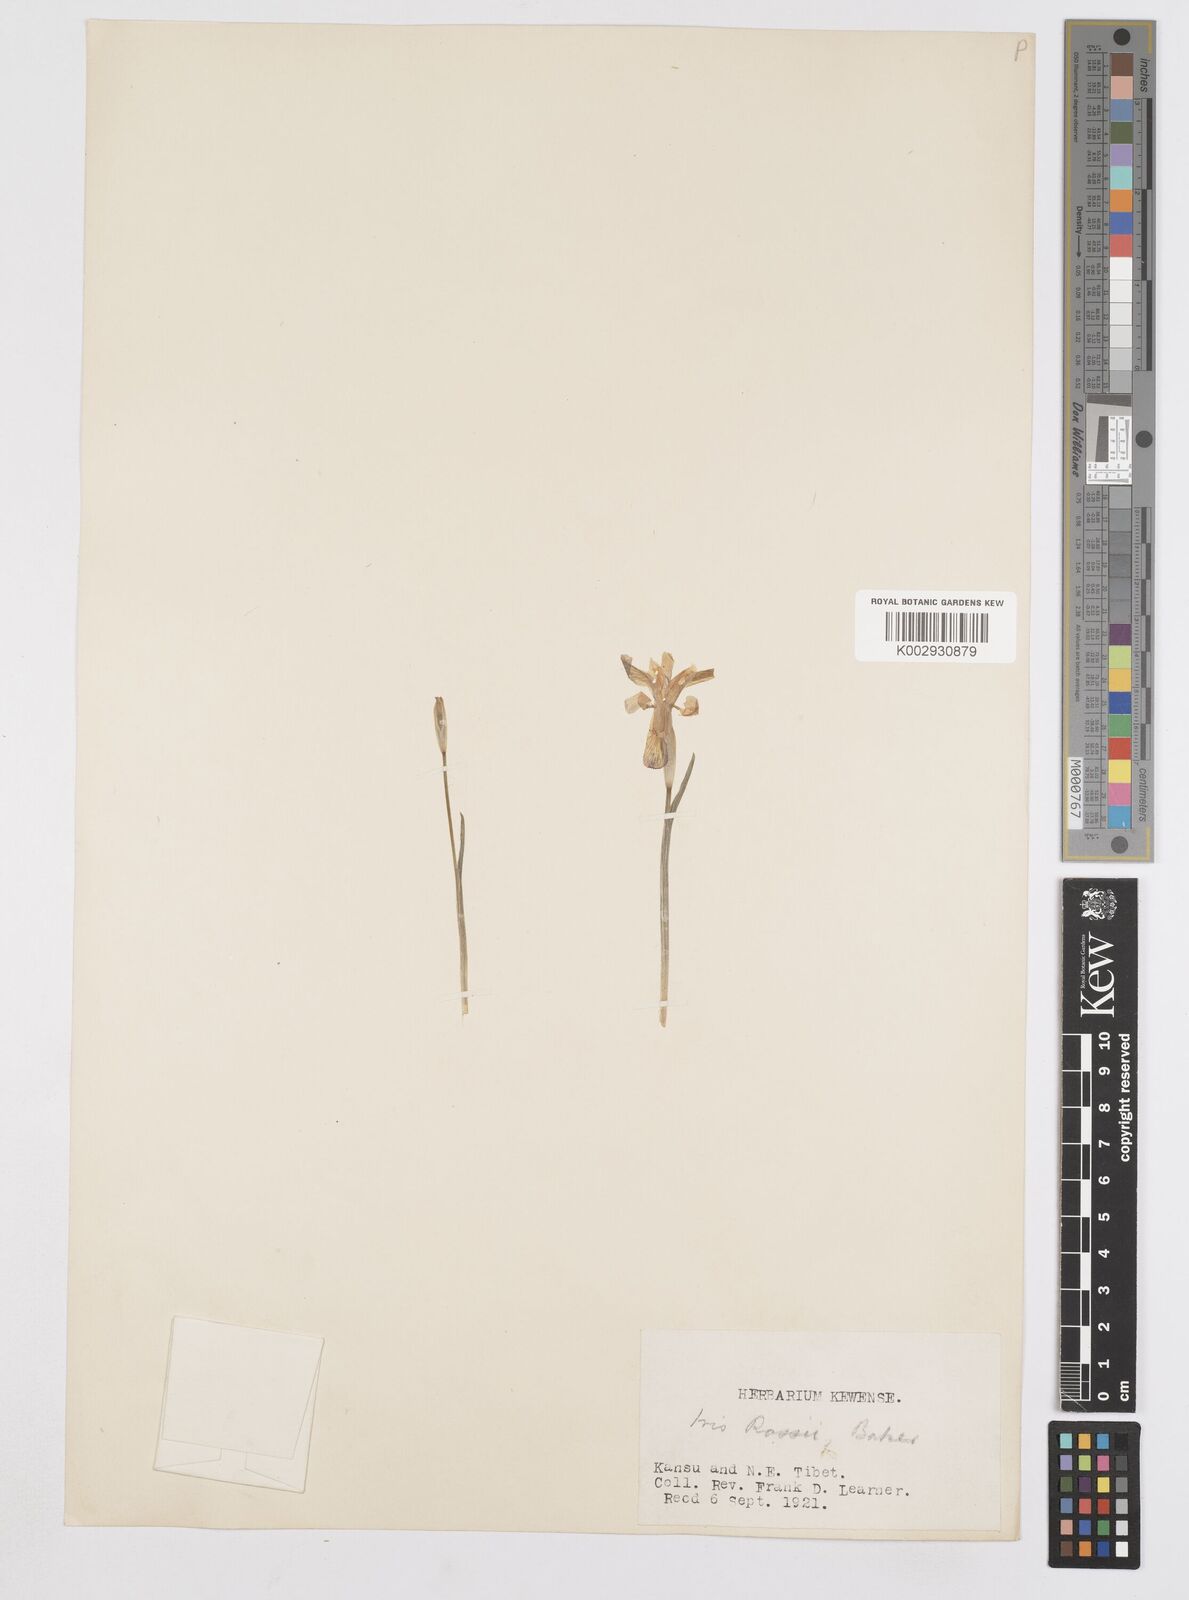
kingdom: Plantae
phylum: Tracheophyta
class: Liliopsida
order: Asparagales
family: Iridaceae
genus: Iris
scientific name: Iris goniocarpa
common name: Angular-fruit iris
